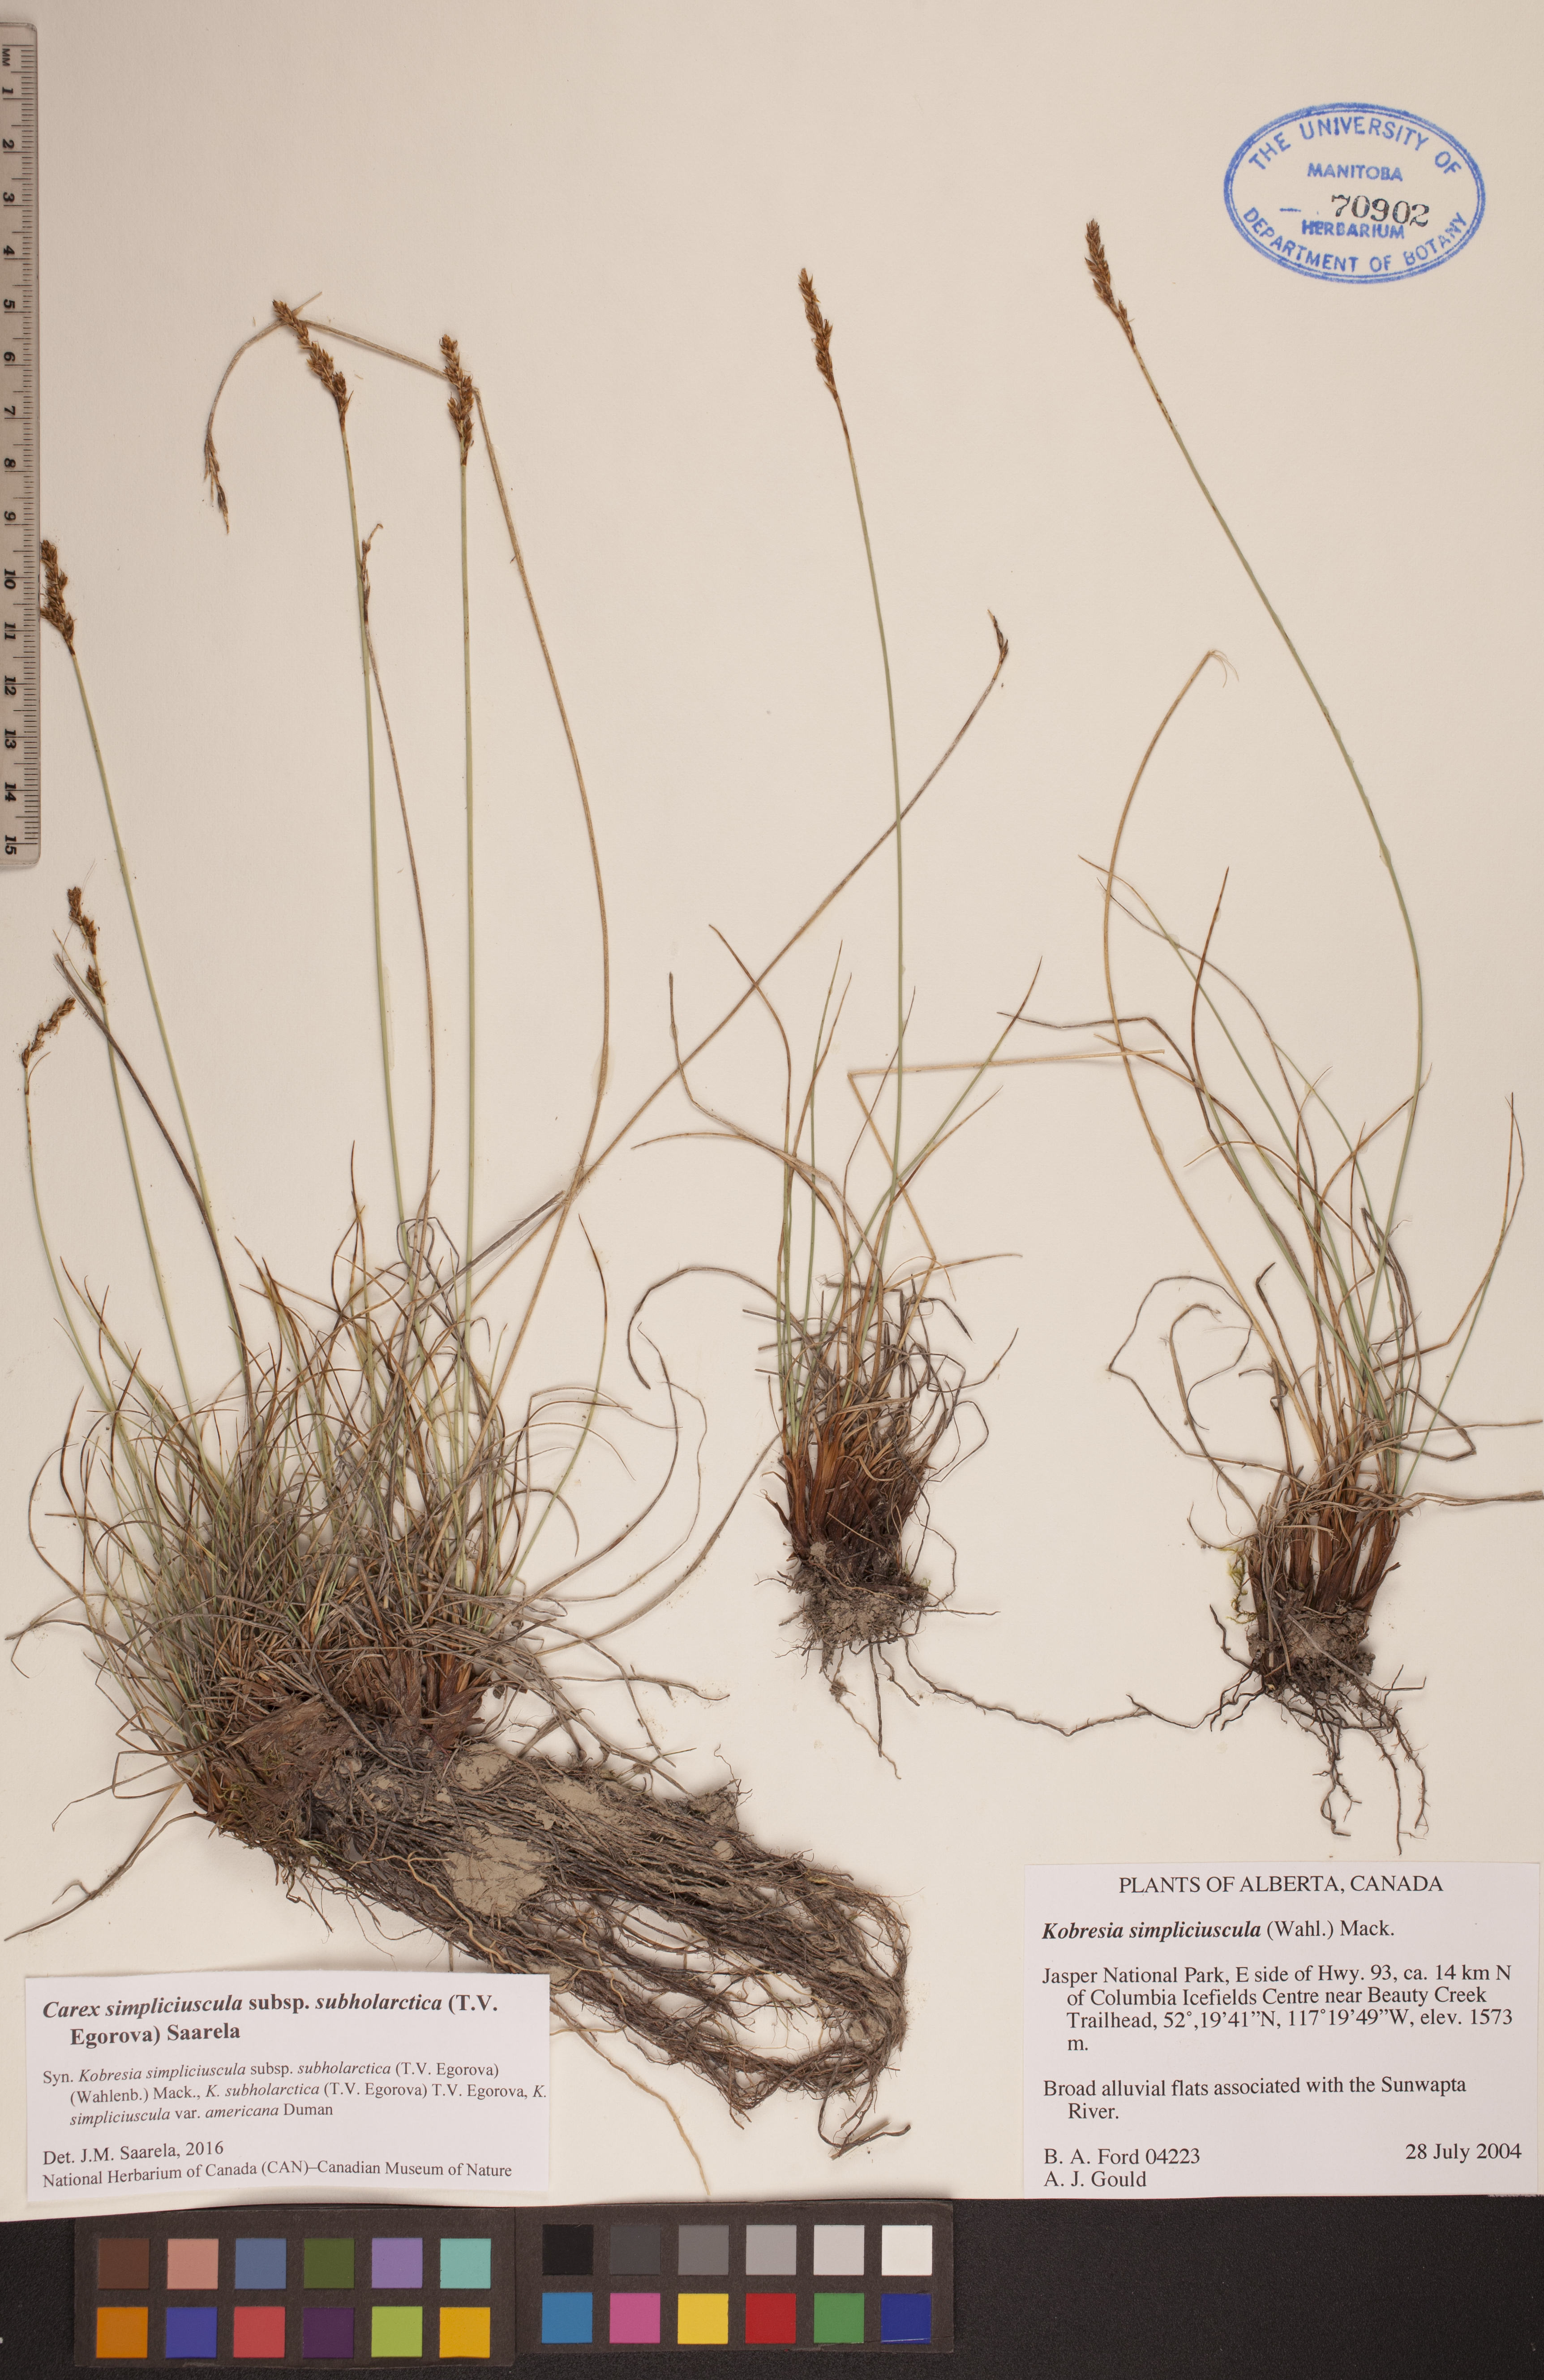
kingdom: Plantae
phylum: Tracheophyta
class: Liliopsida
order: Poales
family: Cyperaceae
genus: Carex
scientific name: Carex simpliciuscula
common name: Simple bog sedge
